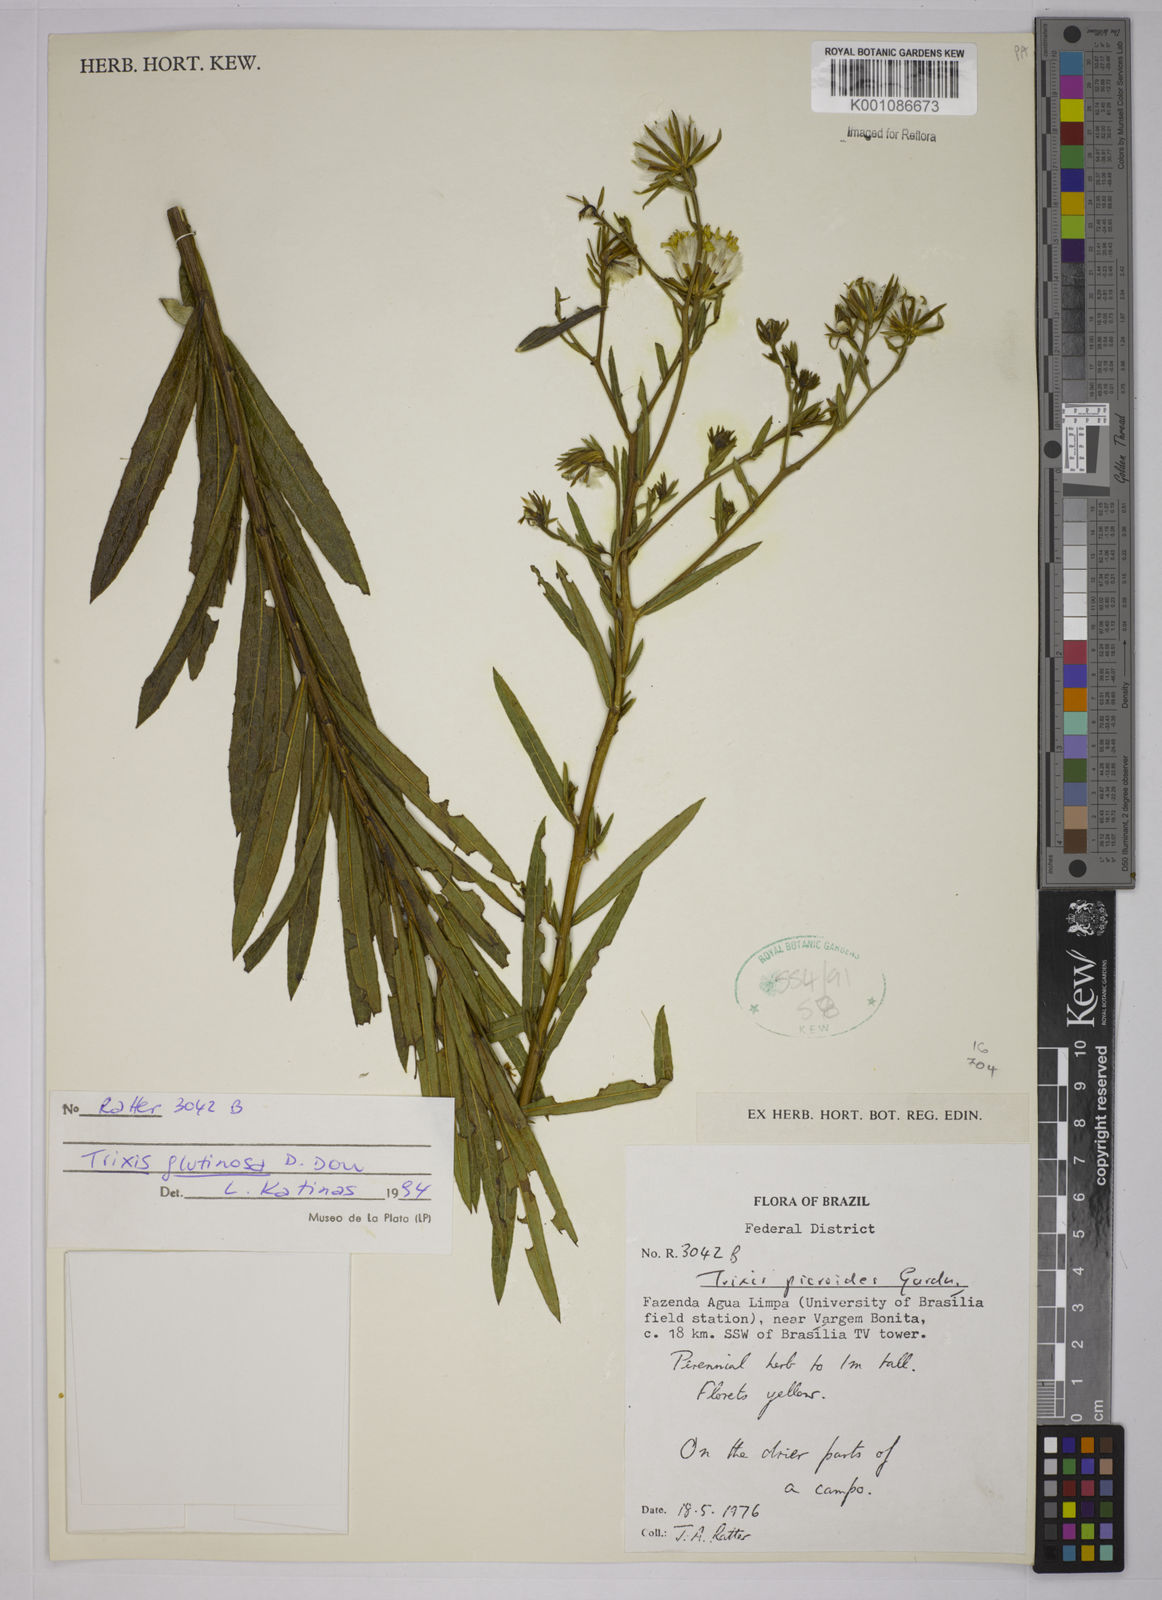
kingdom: Plantae
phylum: Tracheophyta
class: Magnoliopsida
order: Asterales
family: Asteraceae
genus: Trixis
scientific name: Trixis glutinosa
